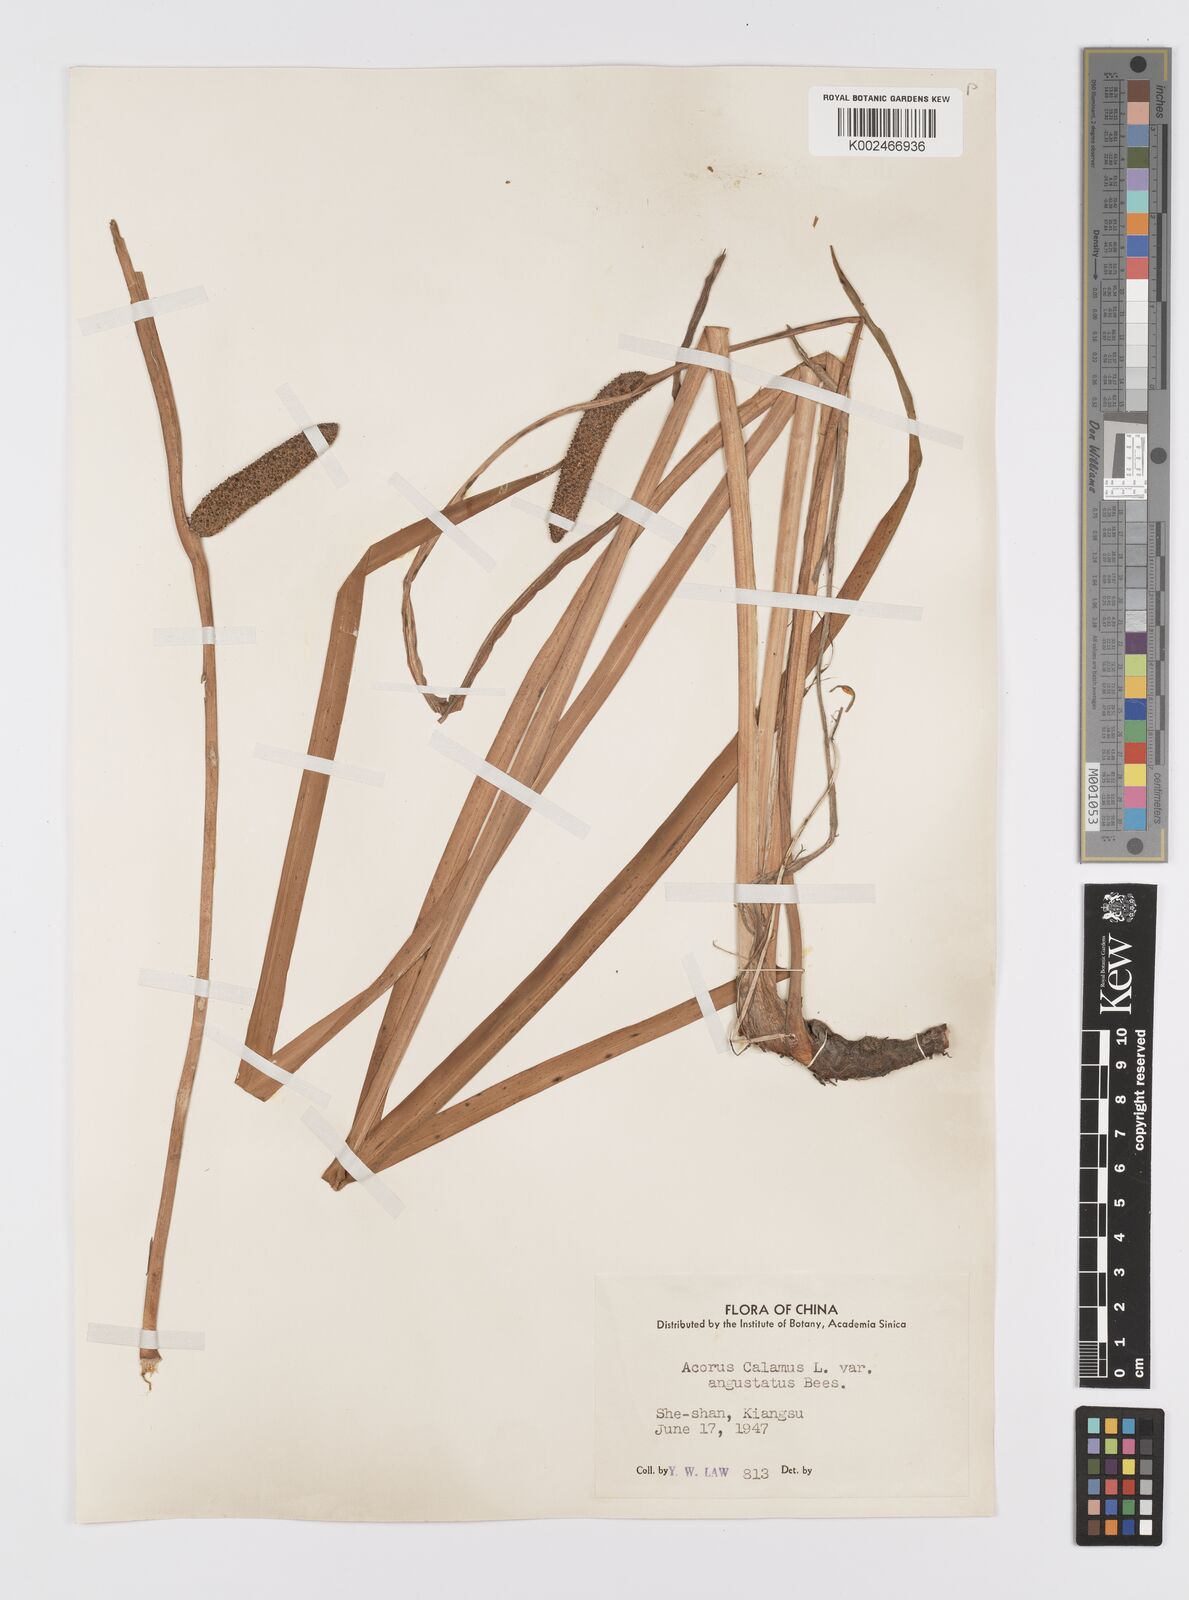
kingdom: Plantae
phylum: Tracheophyta
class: Liliopsida
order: Acorales
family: Acoraceae
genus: Acorus
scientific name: Acorus calamus
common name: Sweet-flag
